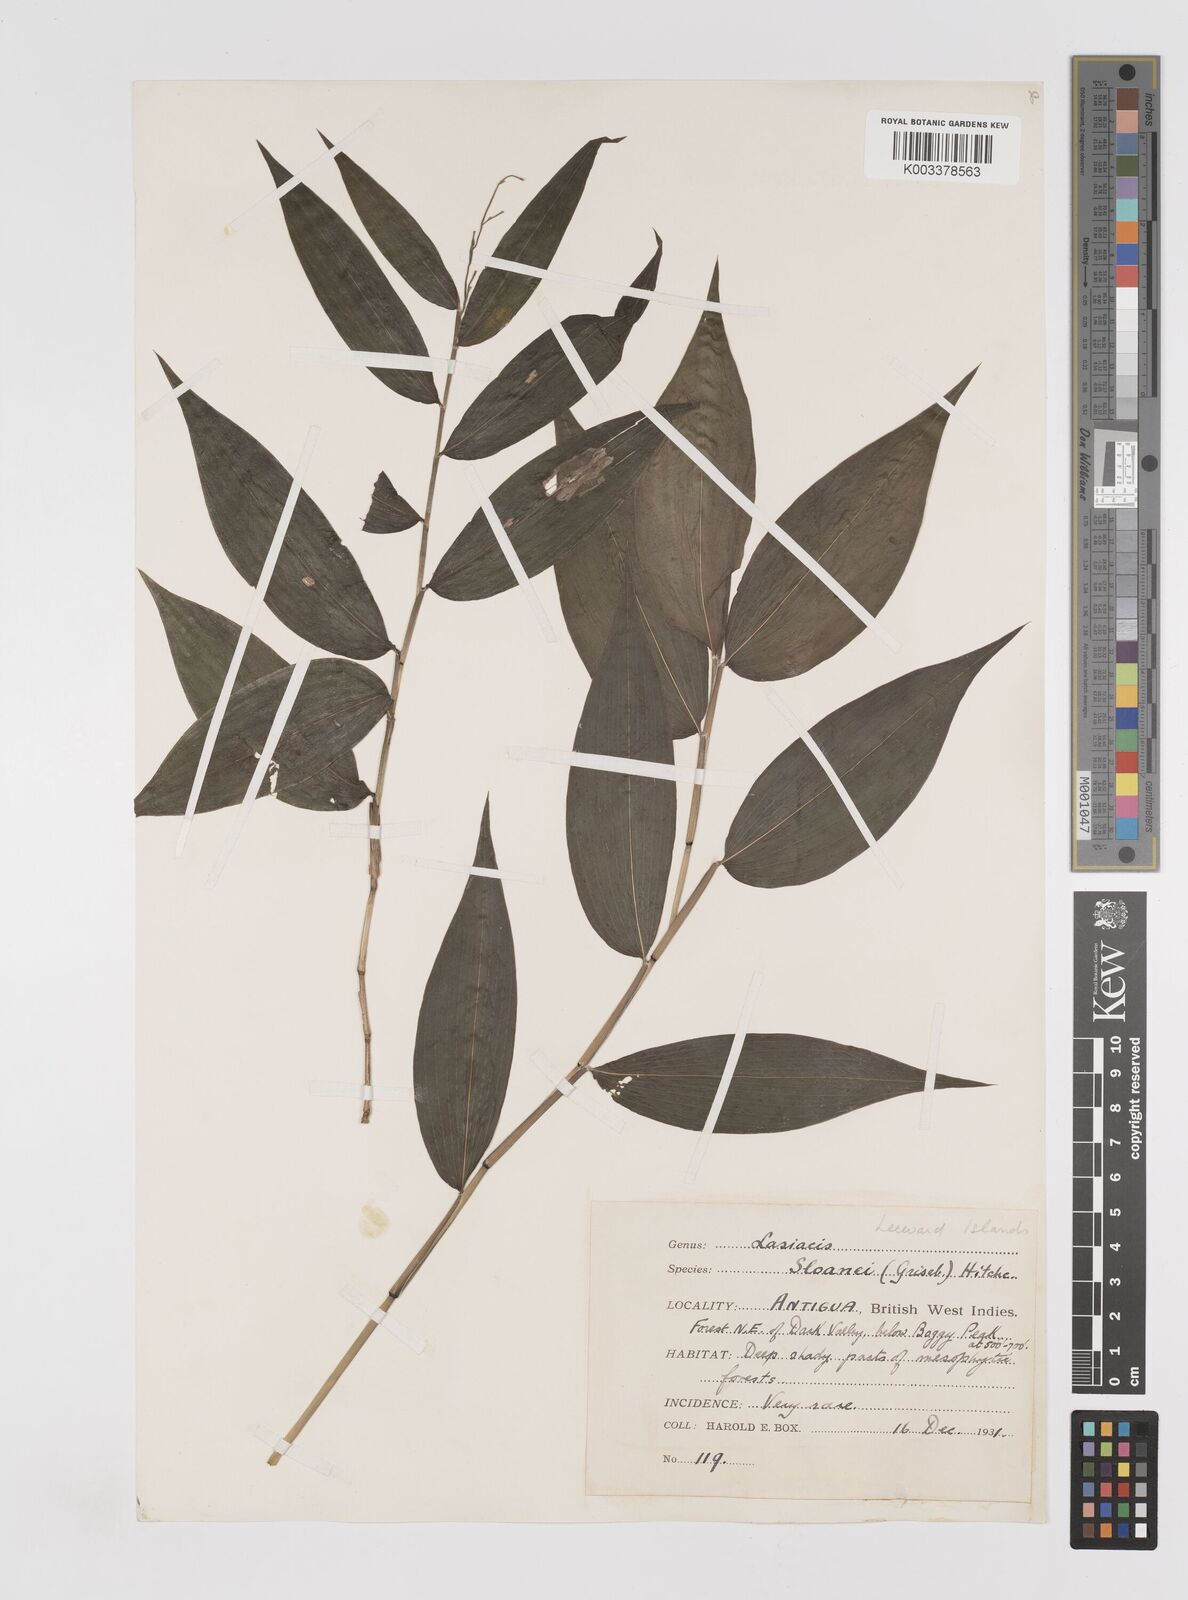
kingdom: Plantae
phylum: Tracheophyta
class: Liliopsida
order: Poales
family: Poaceae
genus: Lasiacis
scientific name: Lasiacis sloanei
